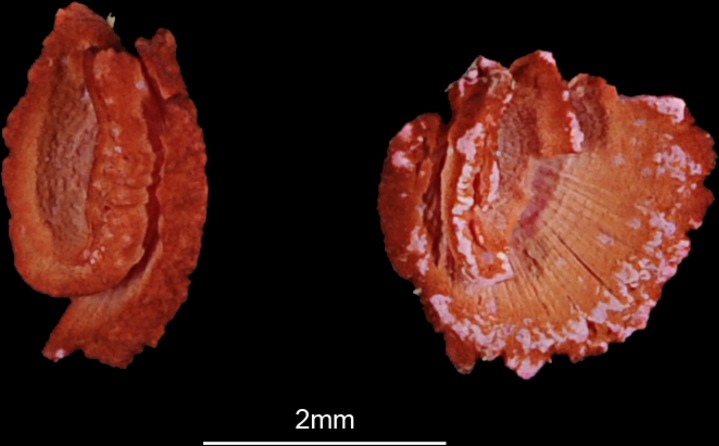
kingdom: Animalia
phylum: Chordata
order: Cypriniformes
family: Cyprinidae
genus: Oreoleuciscus
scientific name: Oreoleuciscus potanini
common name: Altai osman
